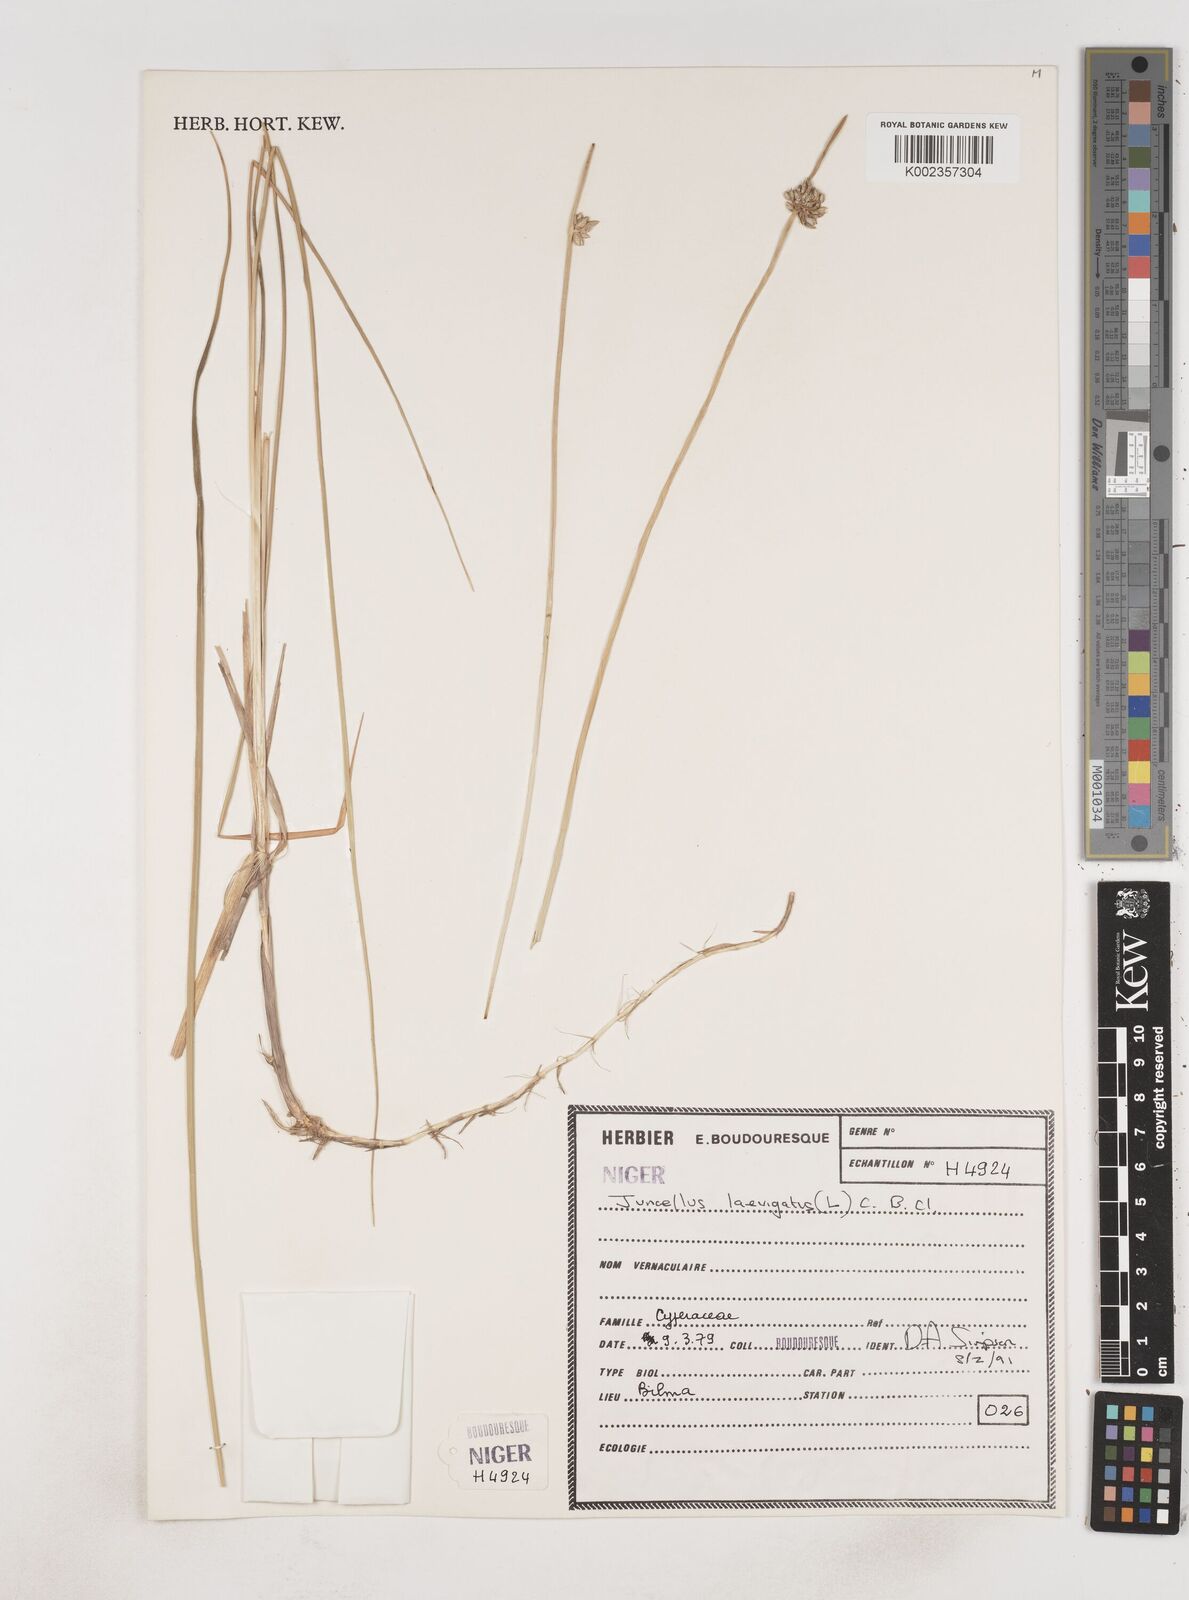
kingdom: Plantae
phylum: Tracheophyta
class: Liliopsida
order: Poales
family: Cyperaceae
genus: Cyperus
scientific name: Cyperus laevigatus
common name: Smooth flat sedge
